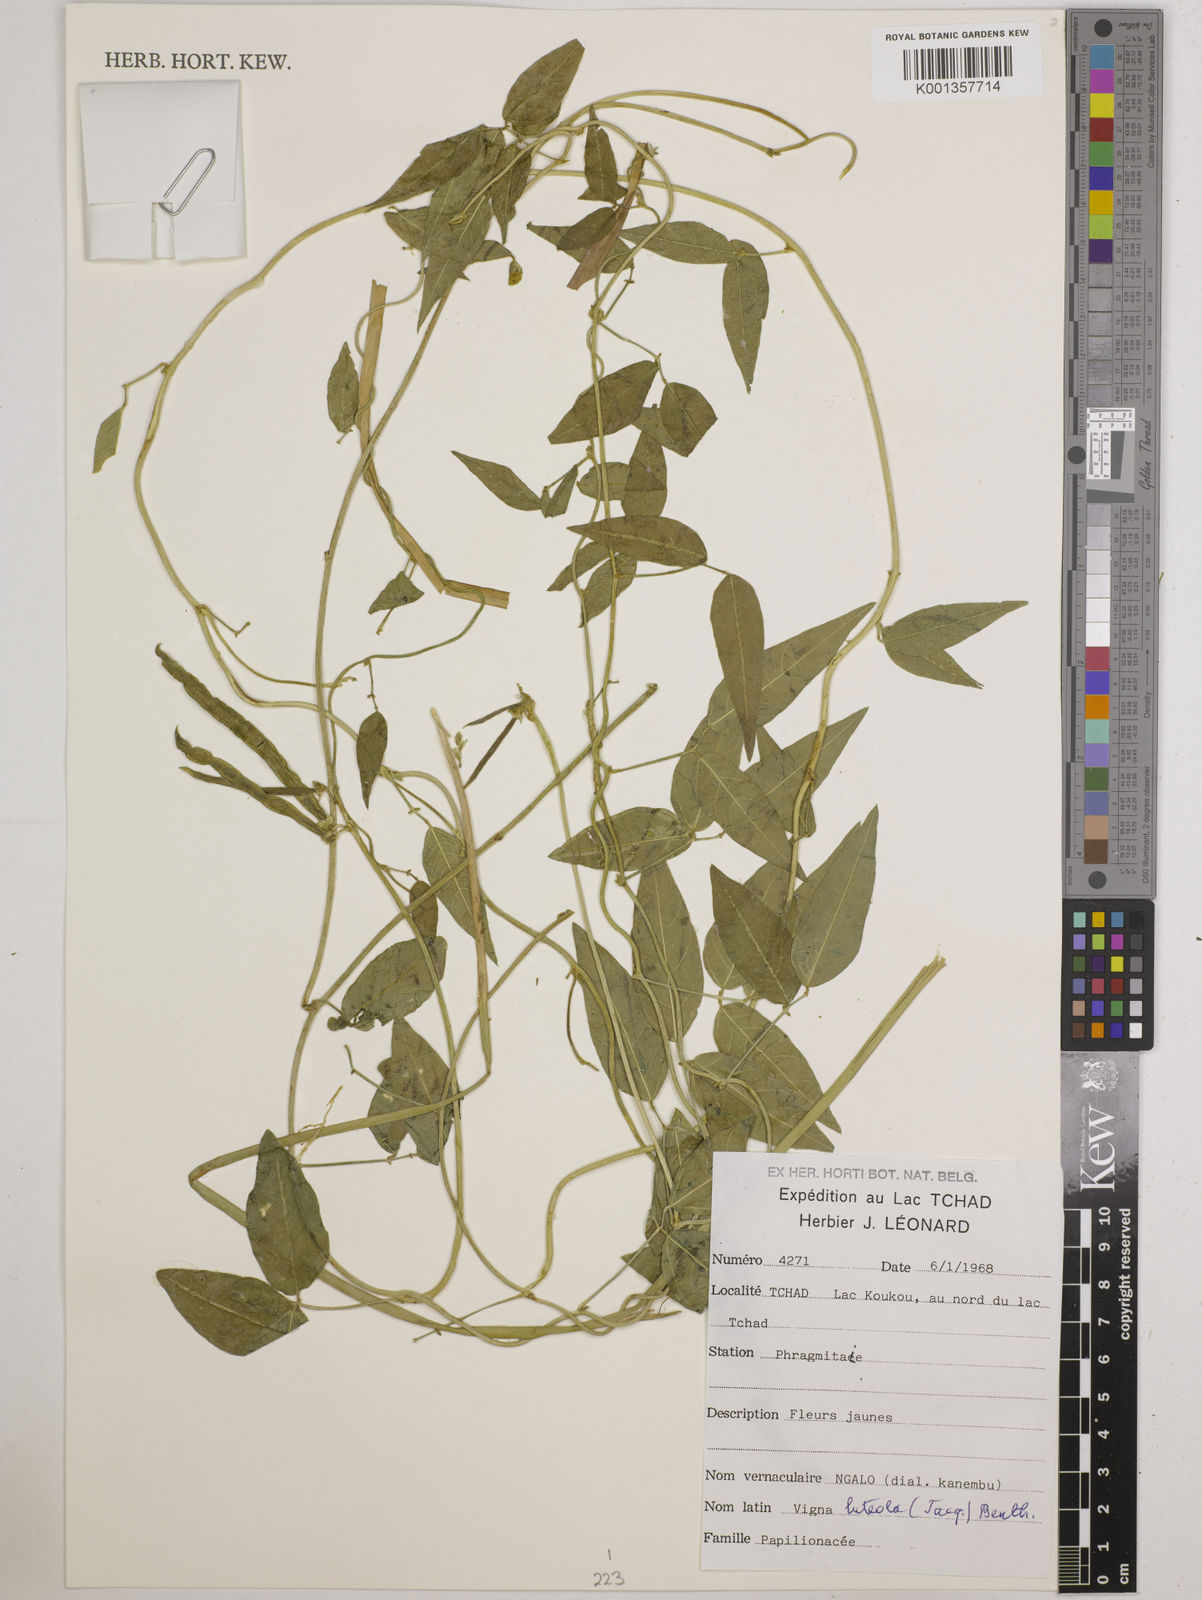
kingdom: Plantae
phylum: Tracheophyta
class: Magnoliopsida
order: Fabales
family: Fabaceae
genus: Vigna
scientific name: Vigna luteola
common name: Hairypod cowpea
